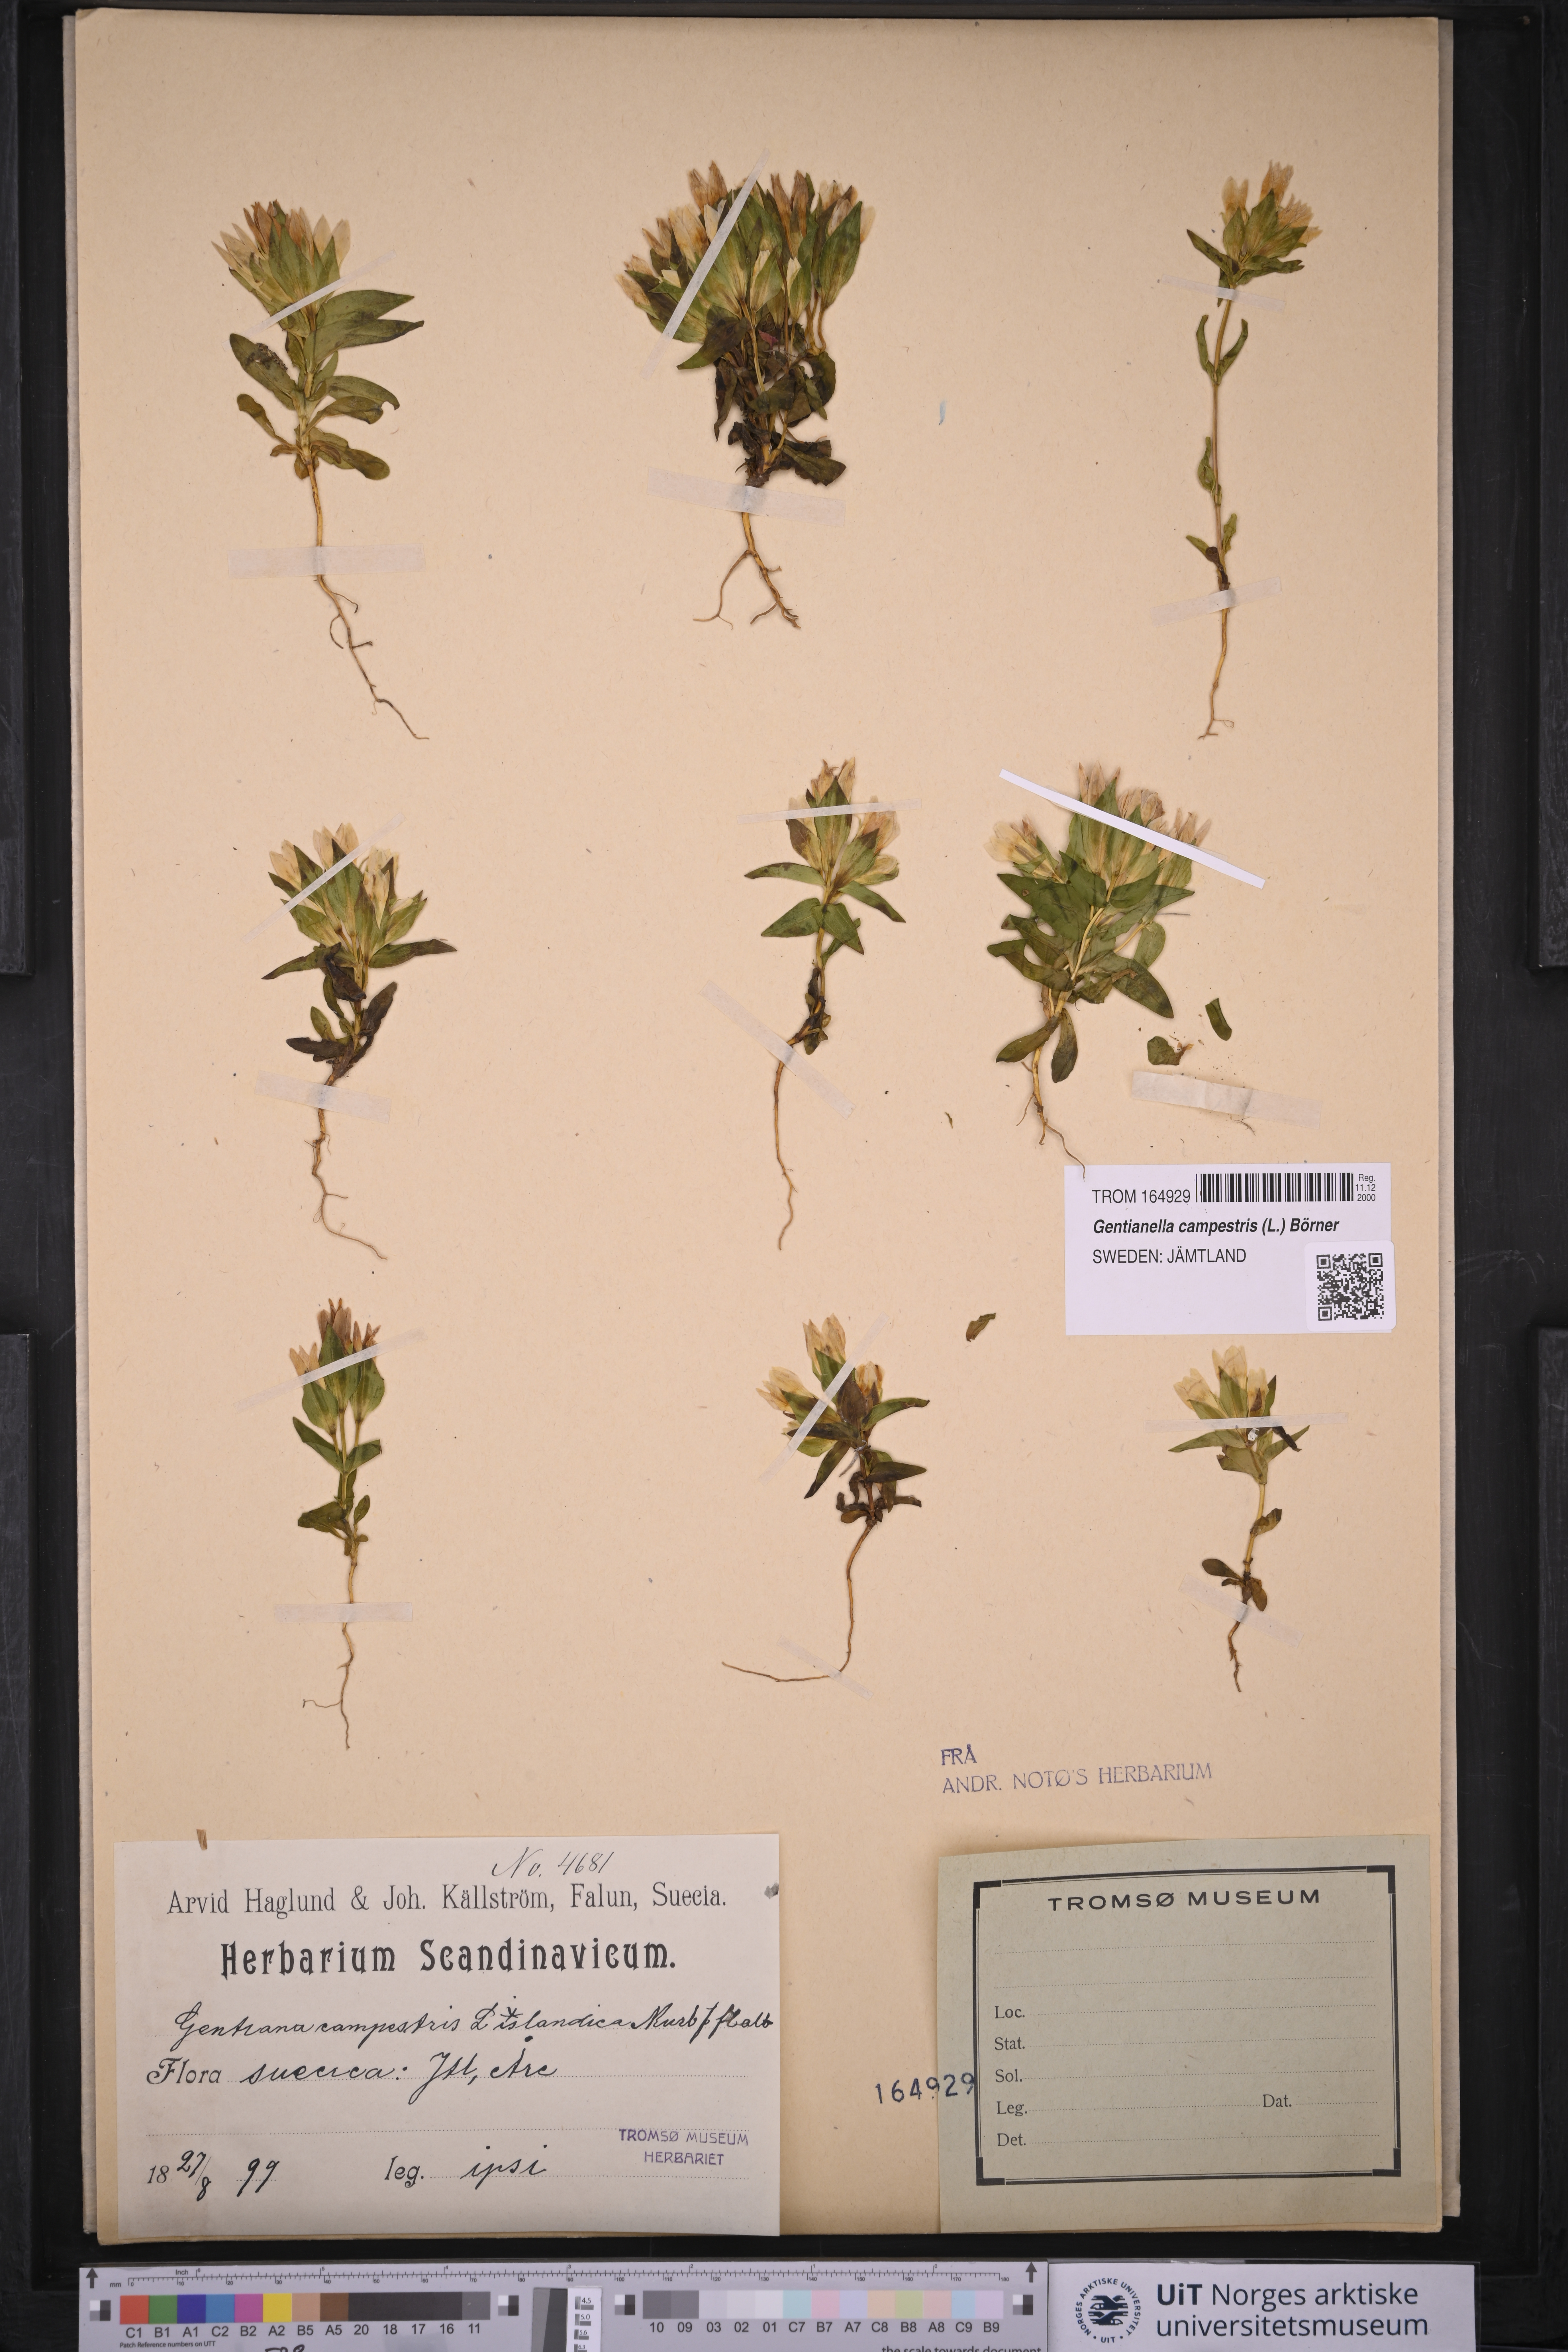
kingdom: Plantae
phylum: Tracheophyta
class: Magnoliopsida
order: Gentianales
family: Gentianaceae
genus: Gentianella
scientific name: Gentianella campestris
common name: Field gentian
